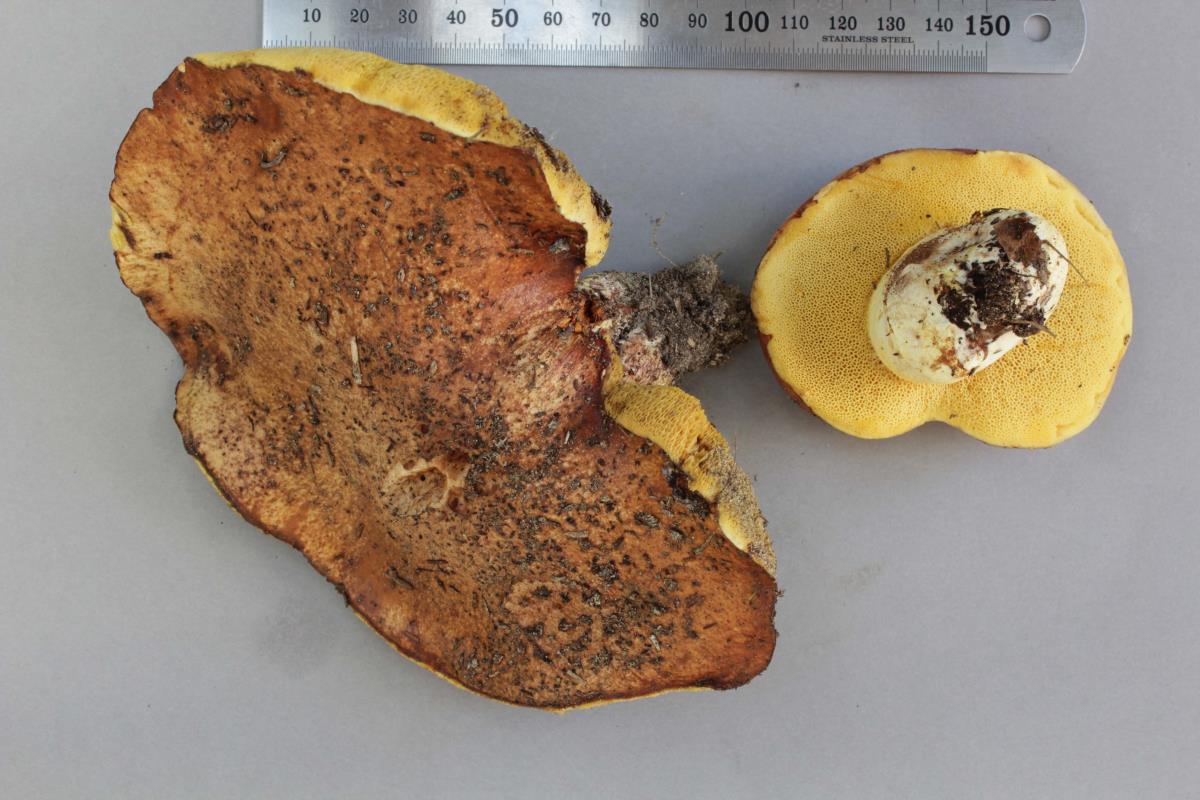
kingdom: Fungi
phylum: Basidiomycota
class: Agaricomycetes
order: Boletales
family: Suillaceae
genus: Suillus
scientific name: Suillus brevipes
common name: Short-stalked suillus
